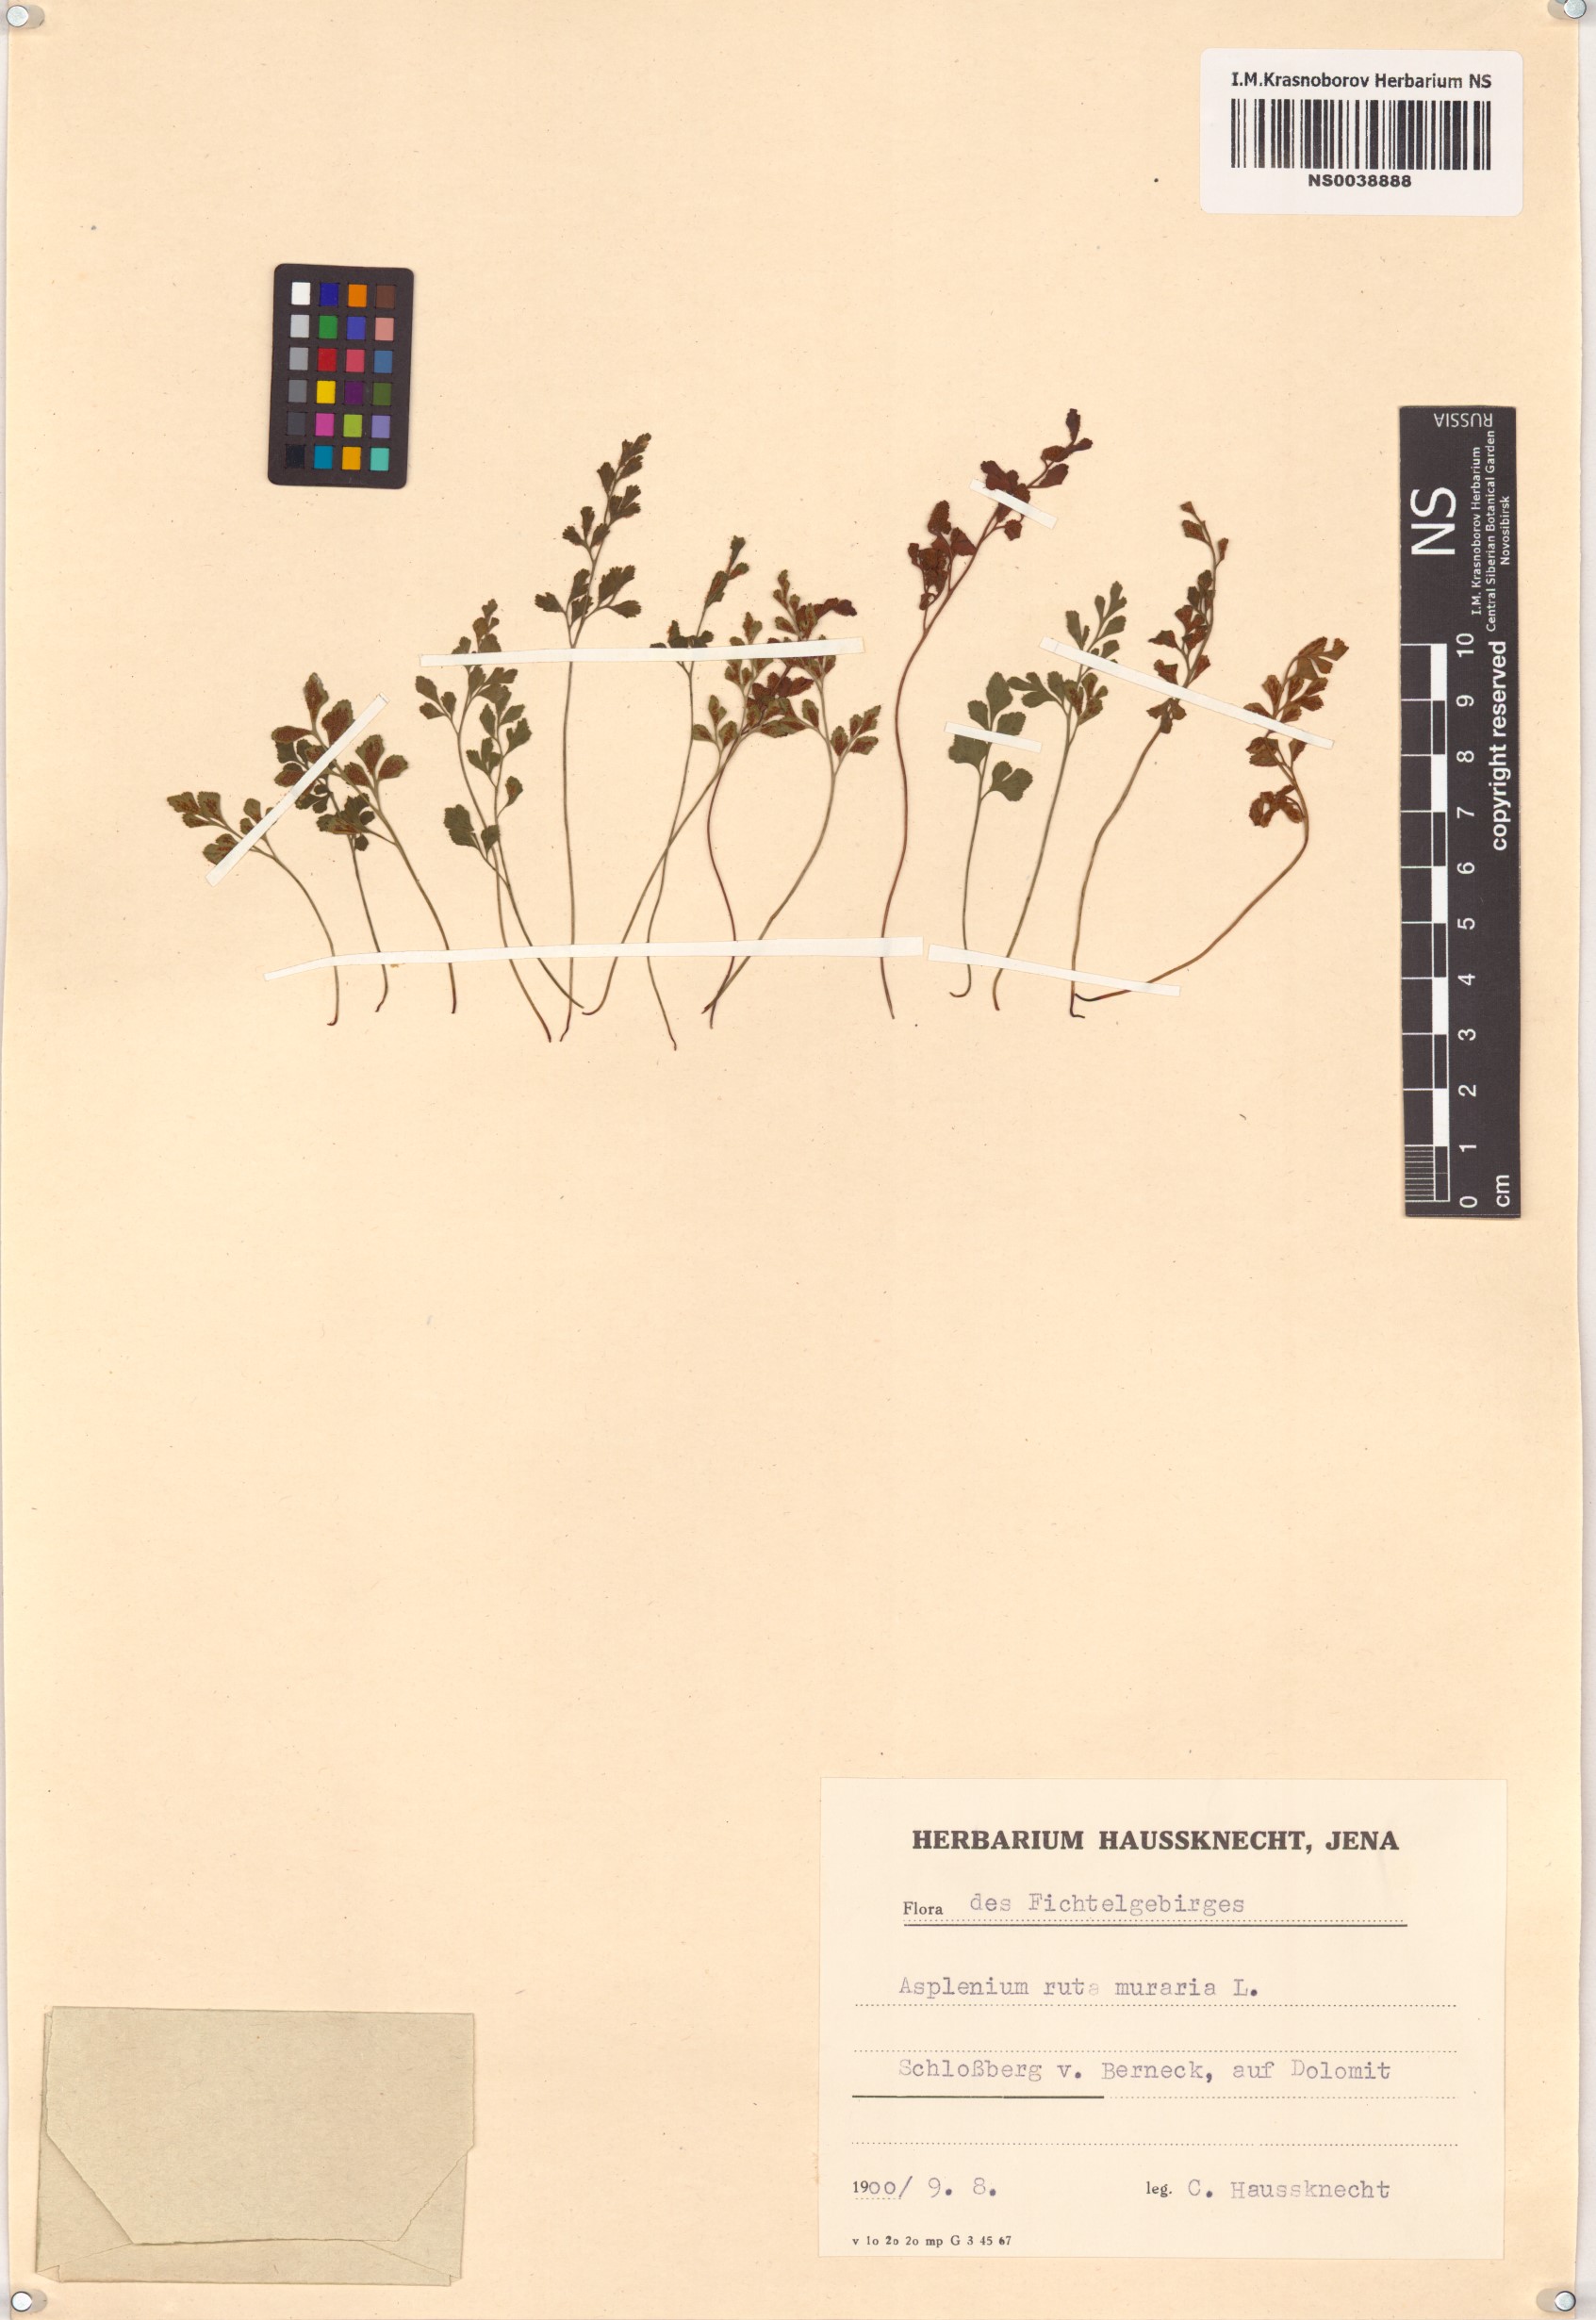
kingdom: Plantae
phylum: Tracheophyta
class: Polypodiopsida
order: Polypodiales
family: Aspleniaceae
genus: Asplenium
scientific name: Asplenium ruta-muraria
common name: Wall-rue
